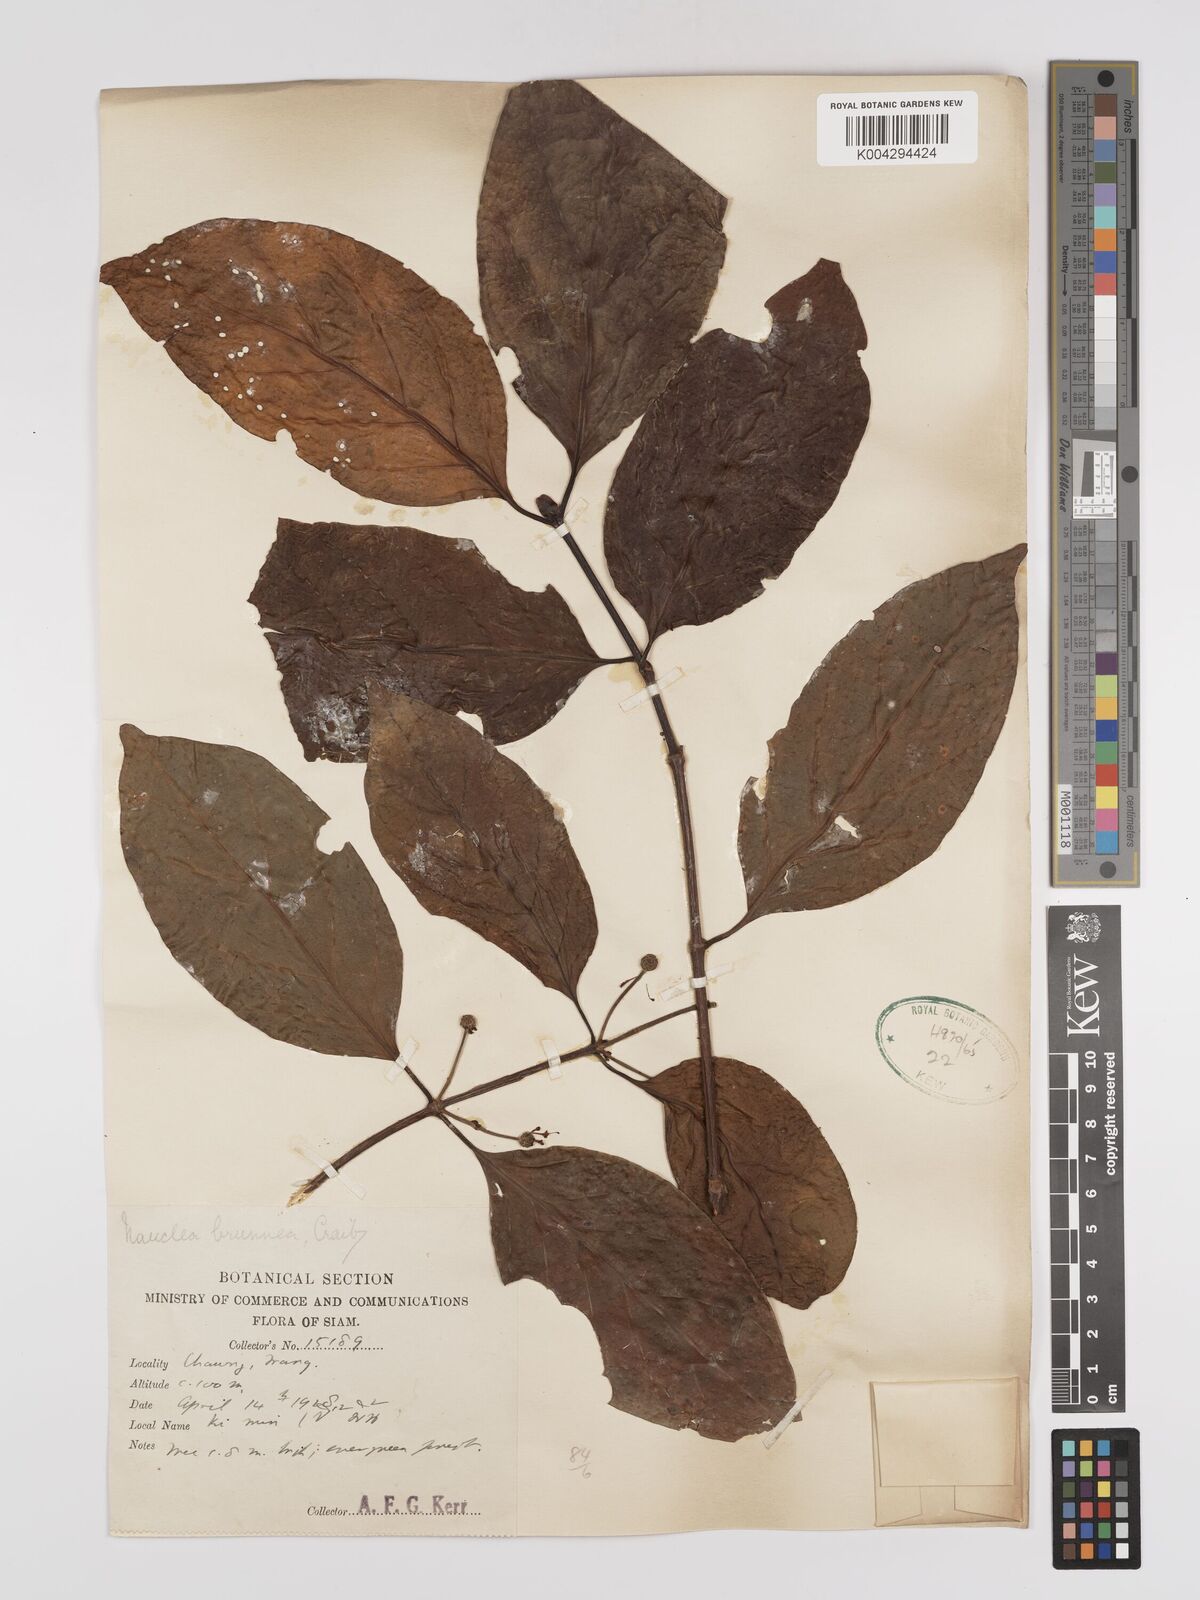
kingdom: Plantae
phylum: Tracheophyta
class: Magnoliopsida
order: Gentianales
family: Rubiaceae
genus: Nauclea
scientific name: Nauclea officinalis
